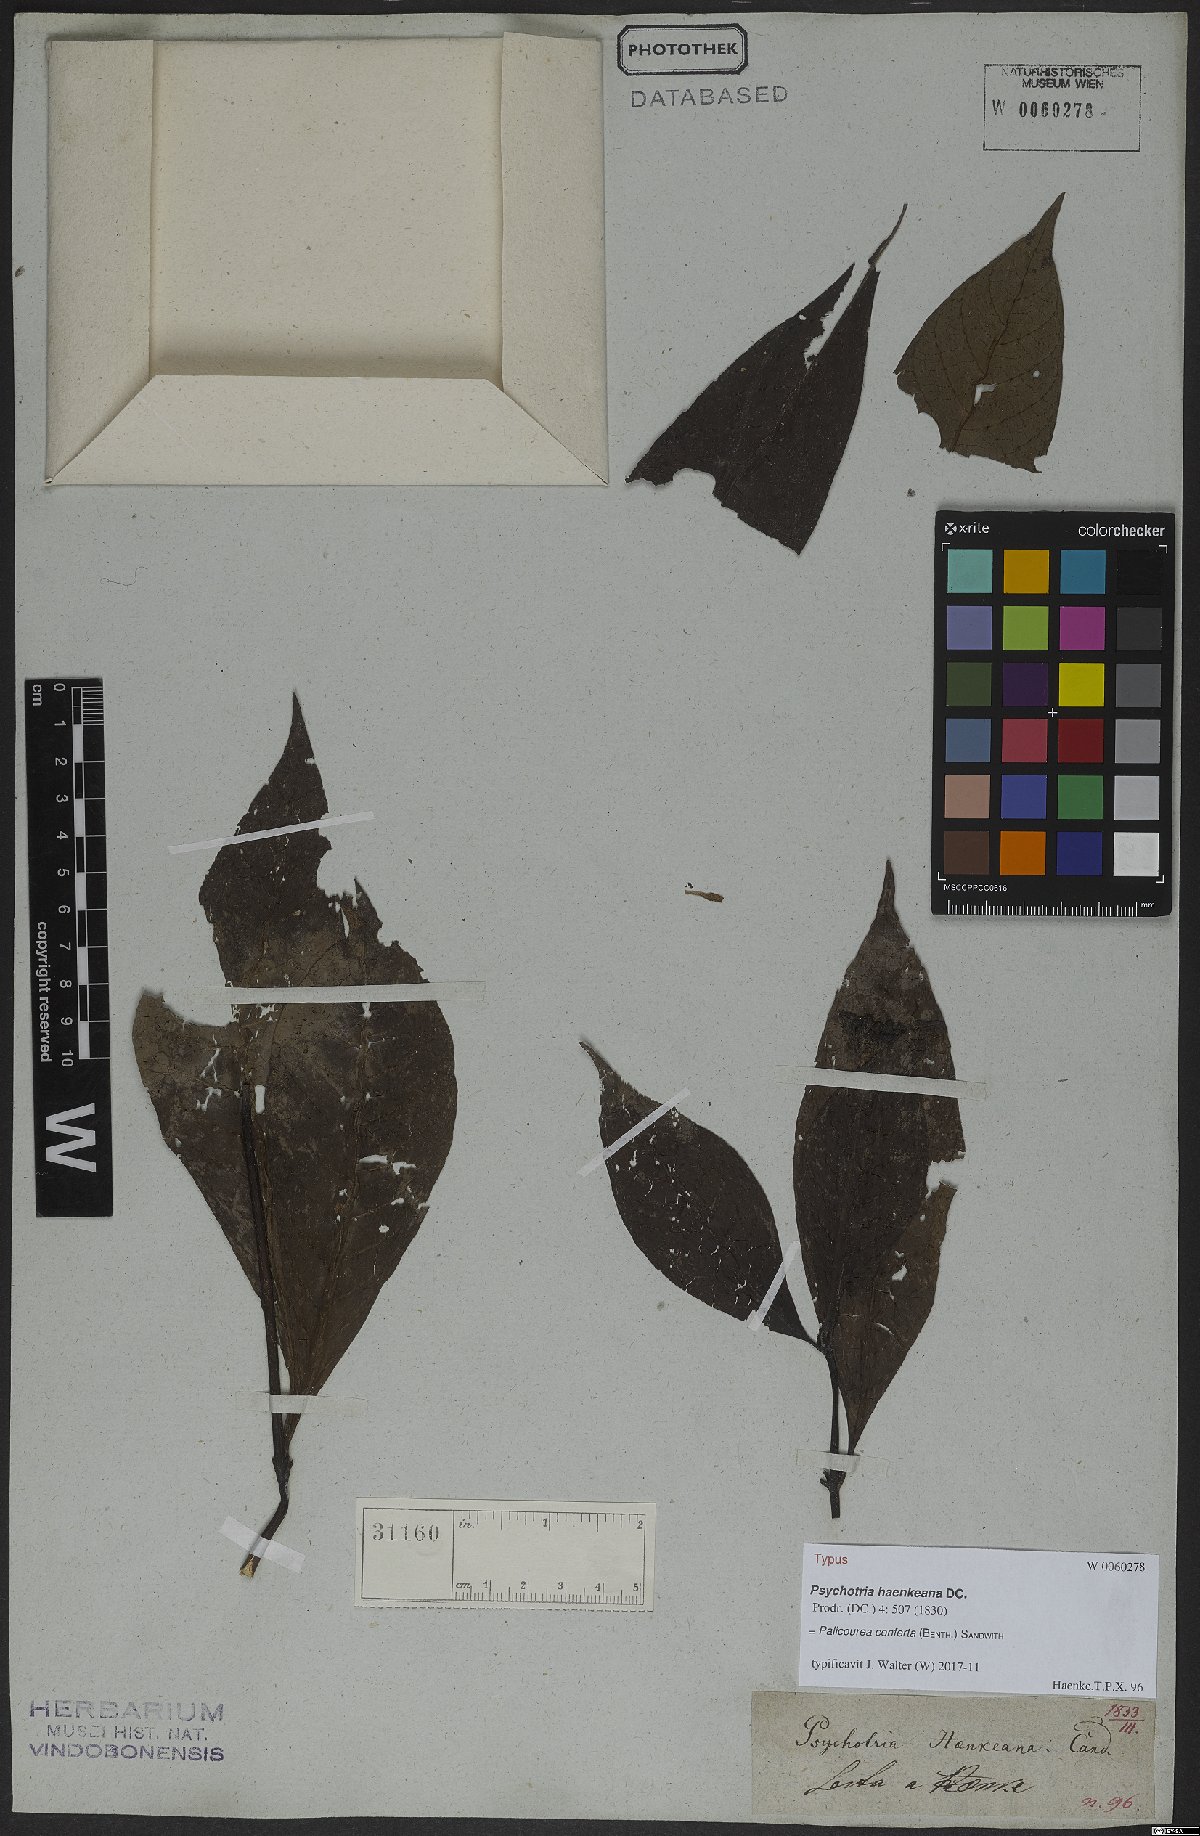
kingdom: Plantae
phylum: Tracheophyta
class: Magnoliopsida
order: Gentianales
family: Rubiaceae
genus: Palicourea
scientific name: Palicourea conferta
